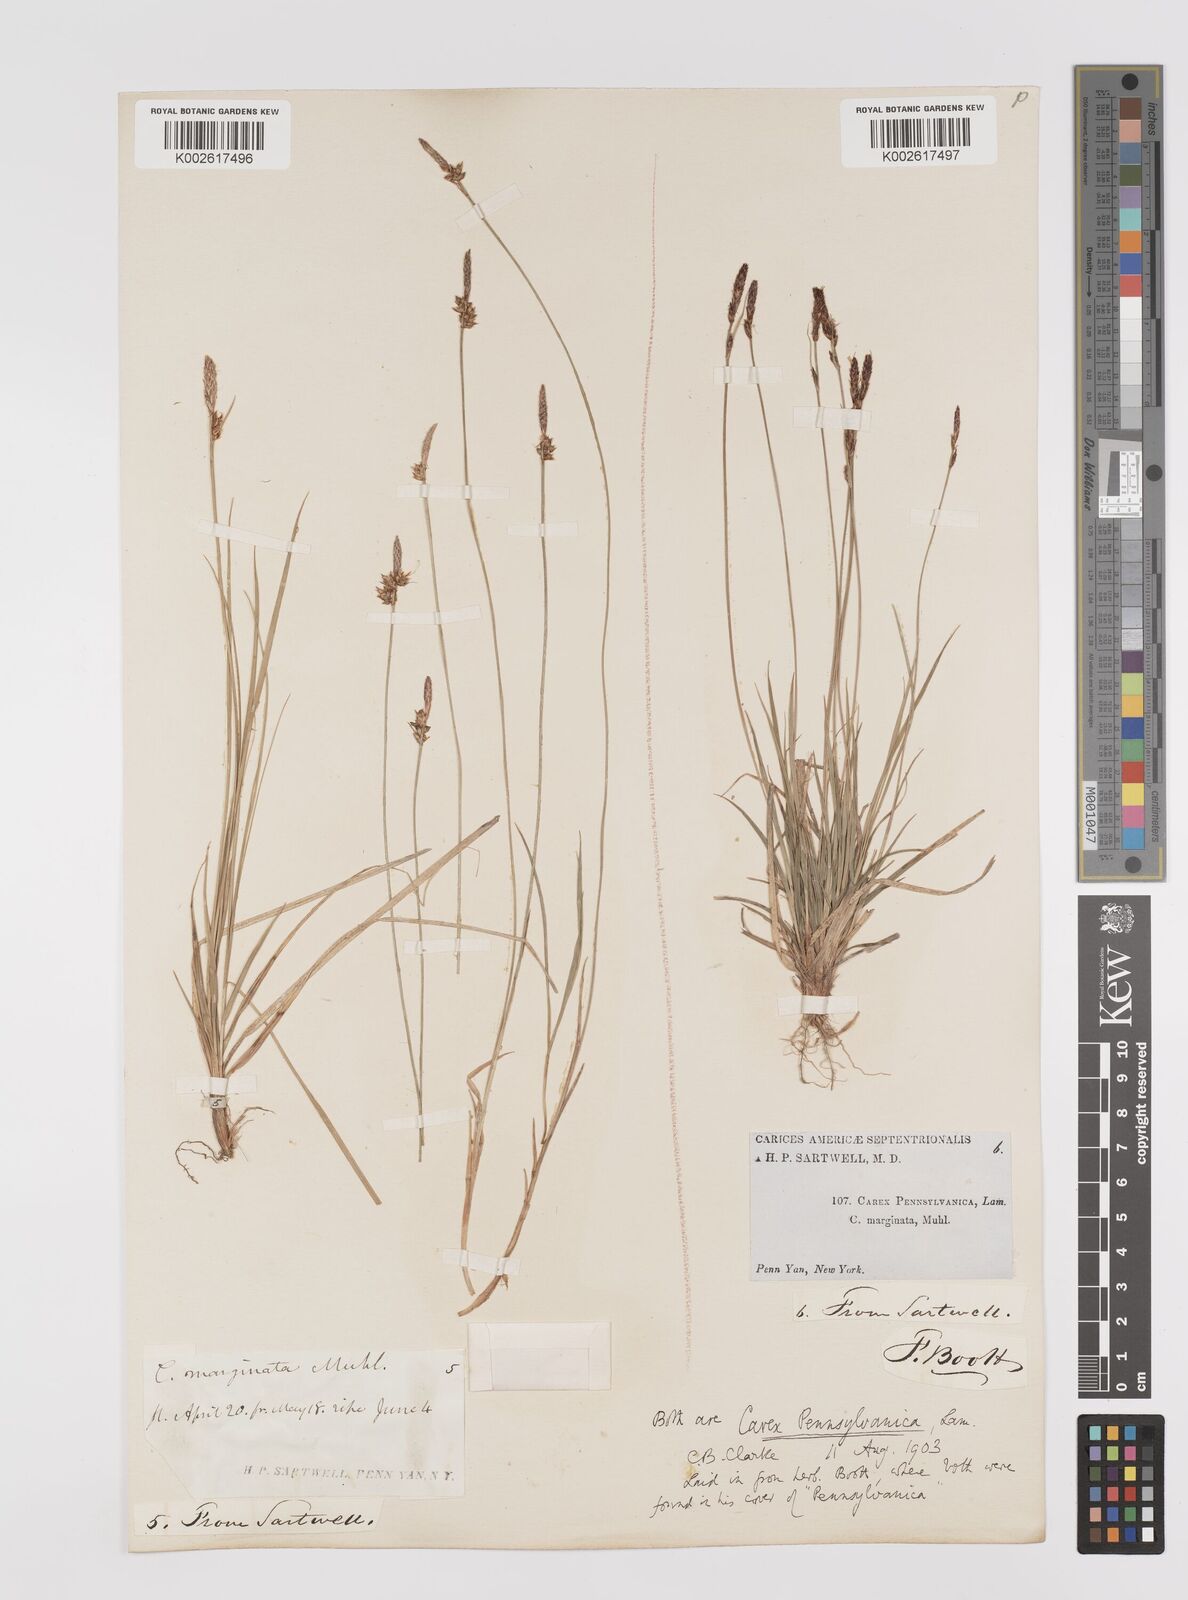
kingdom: Plantae
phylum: Tracheophyta
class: Liliopsida
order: Poales
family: Cyperaceae
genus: Carex
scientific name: Carex pensylvanica
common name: Common oak sedge
